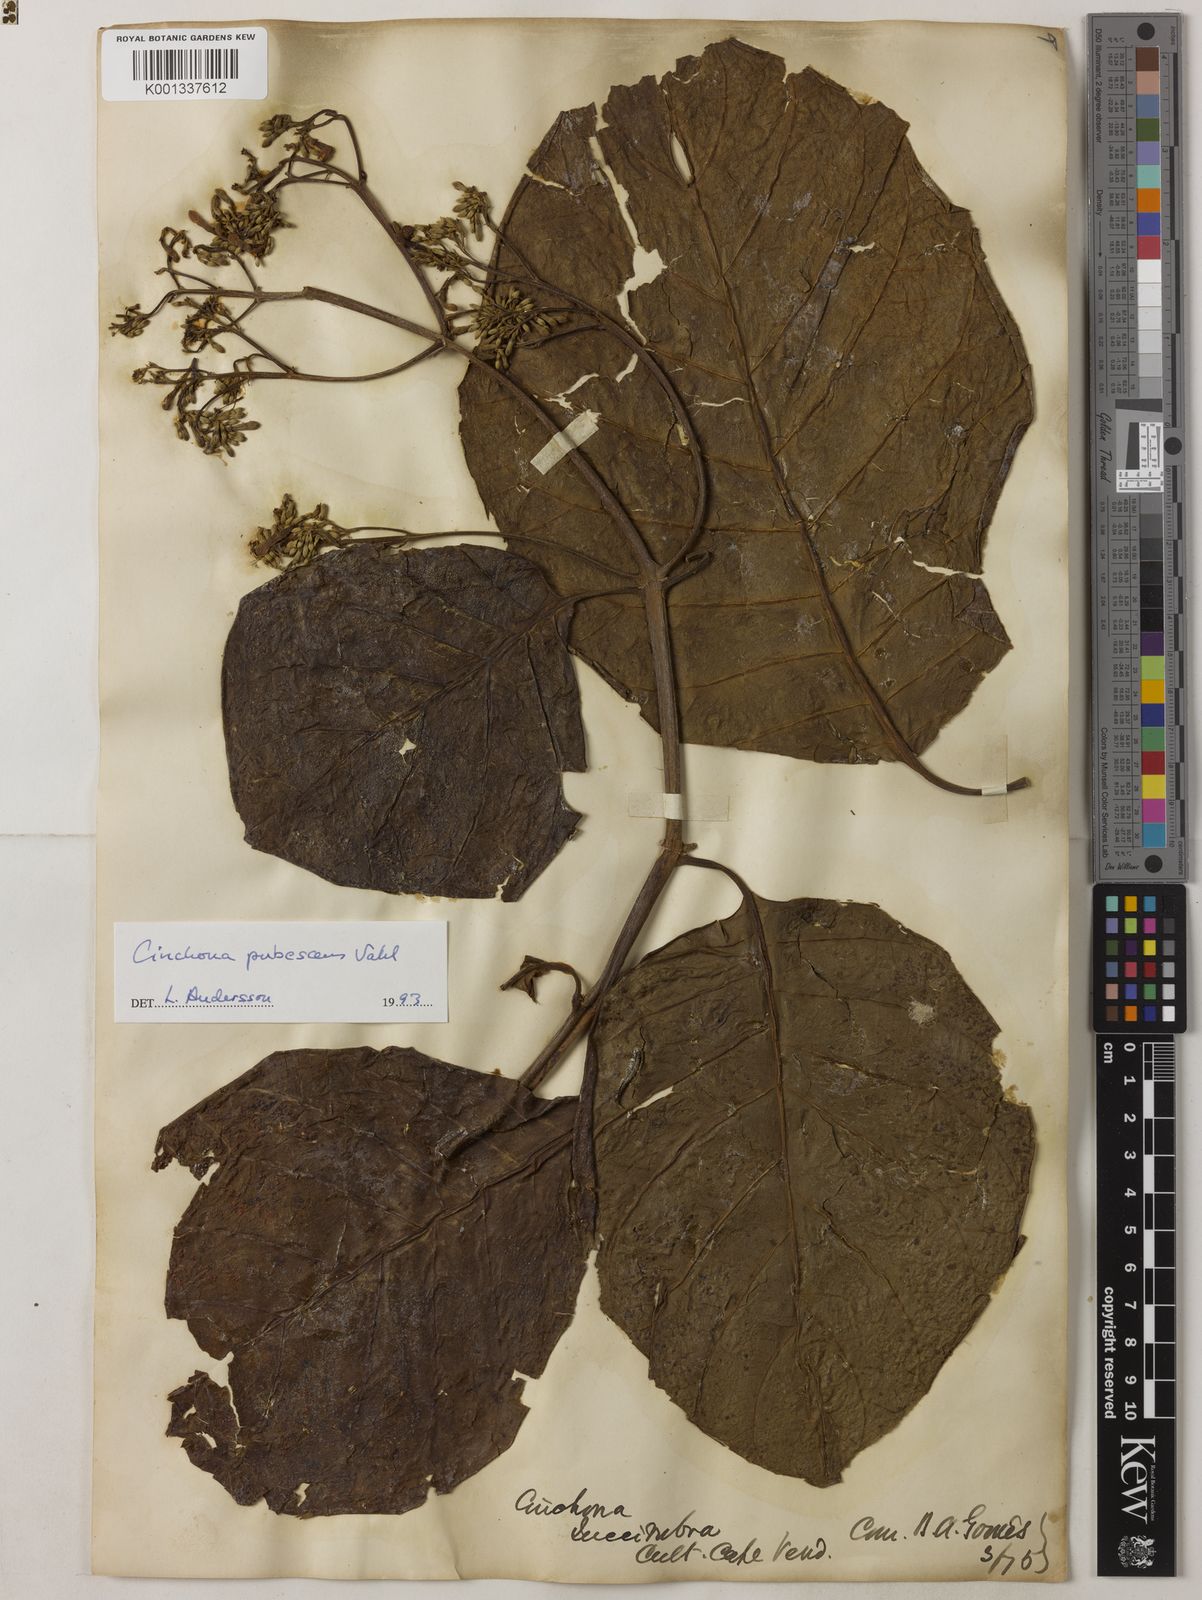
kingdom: Plantae
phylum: Tracheophyta
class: Magnoliopsida
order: Gentianales
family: Rubiaceae
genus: Cinchona
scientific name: Cinchona pubescens
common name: Quinine
